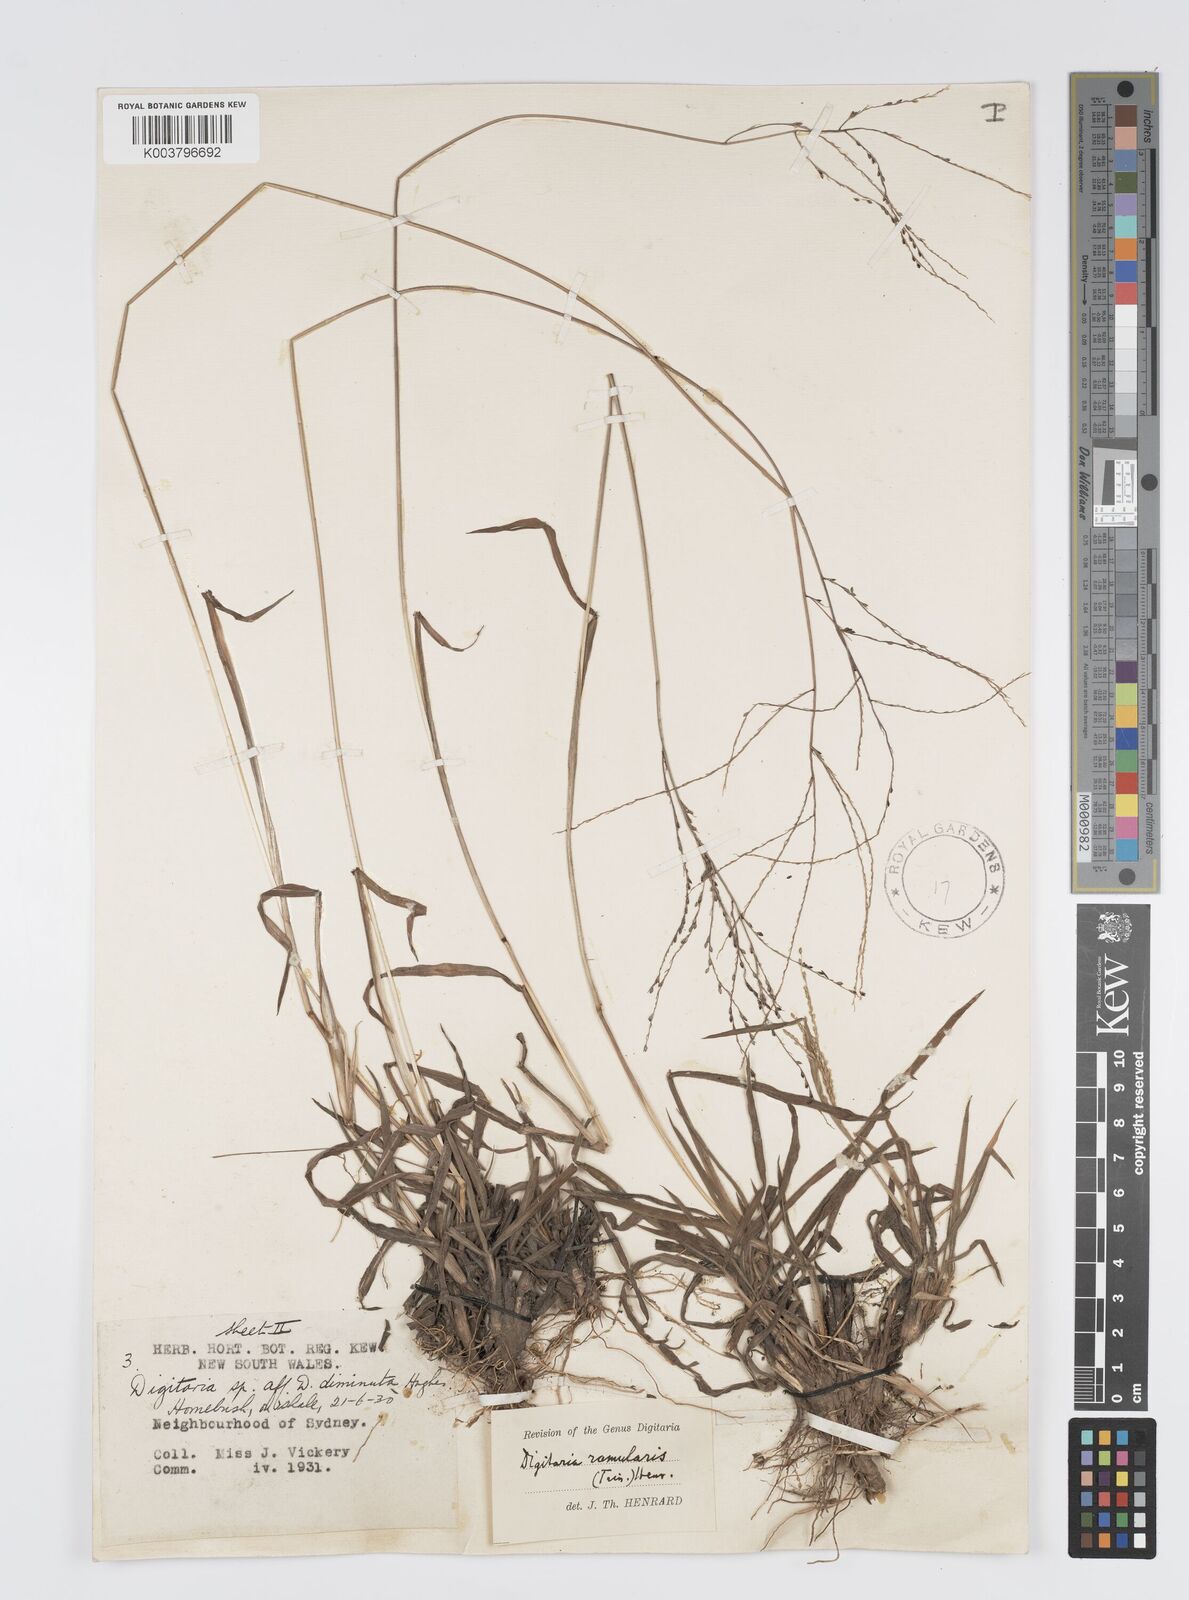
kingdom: Plantae
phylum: Tracheophyta
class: Liliopsida
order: Poales
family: Poaceae
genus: Digitaria
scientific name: Digitaria ramularis
